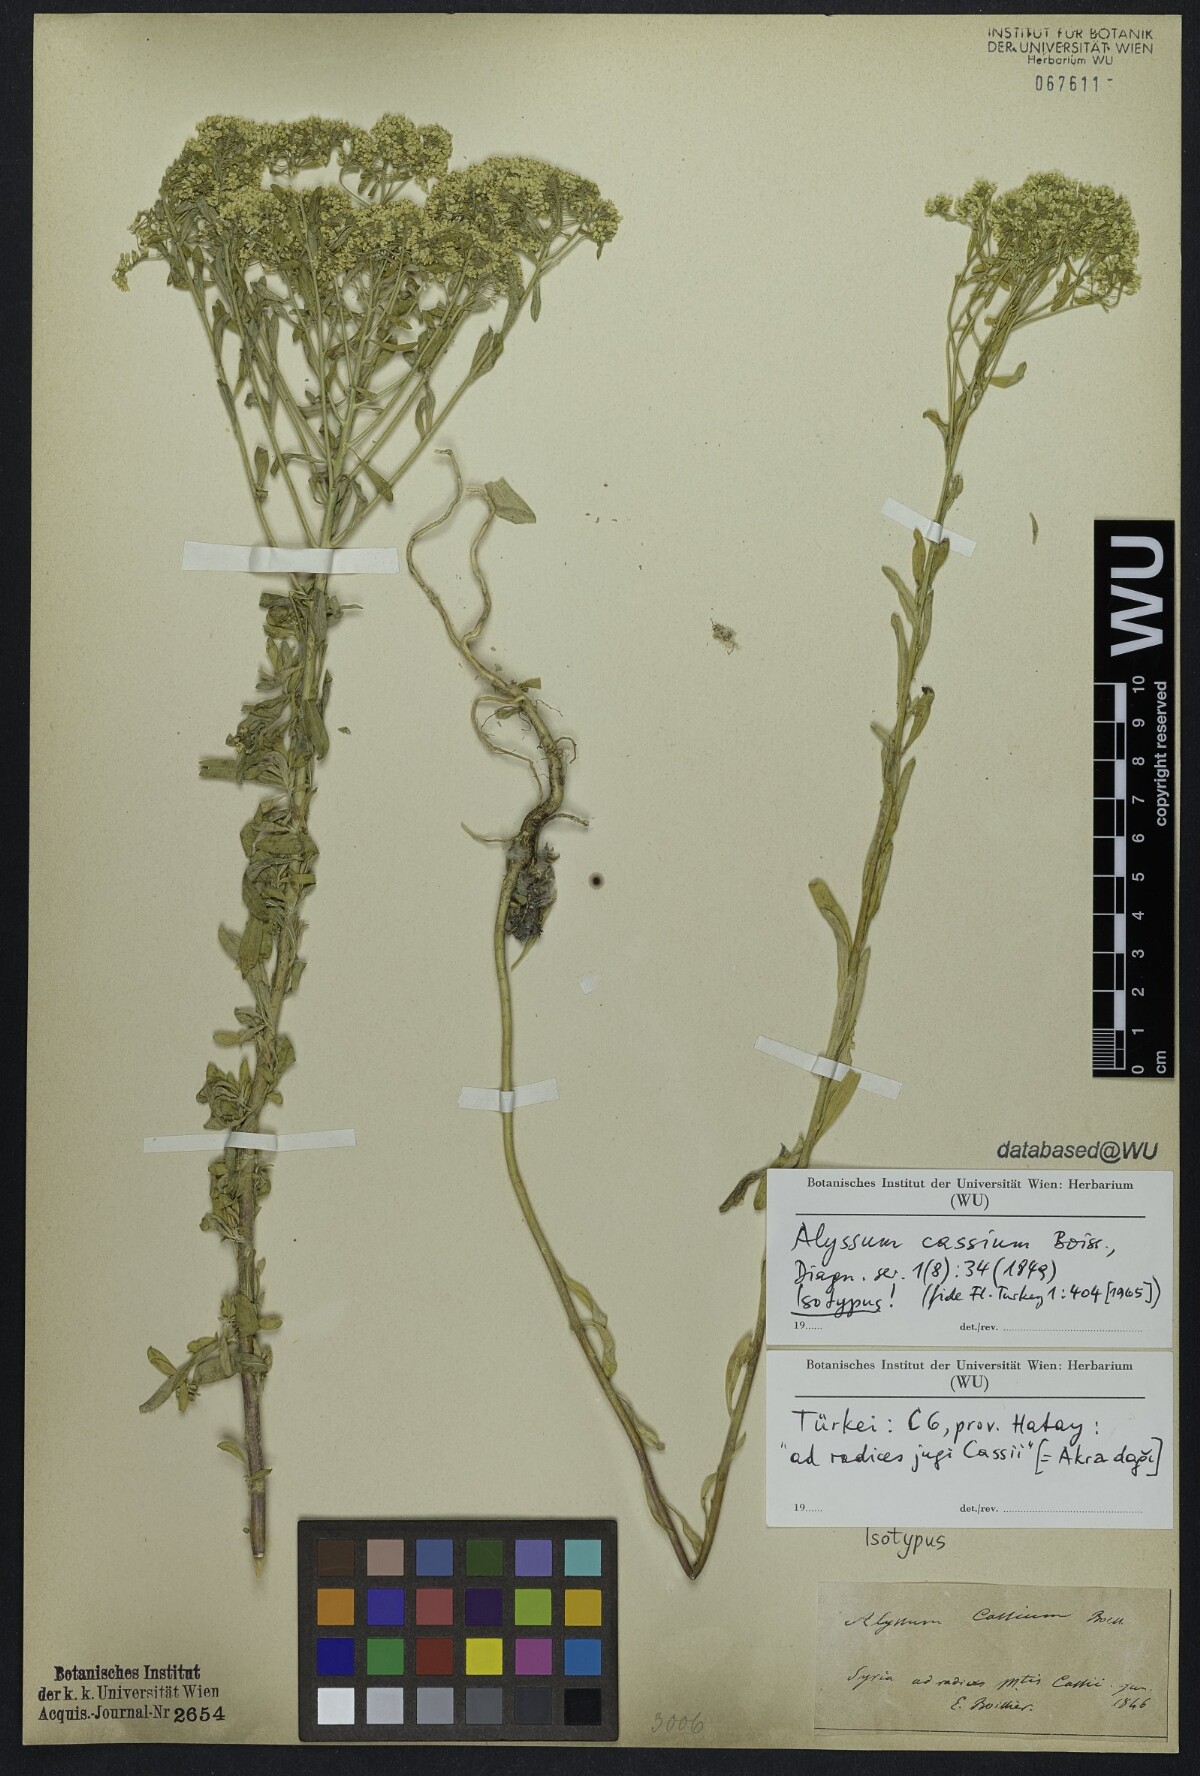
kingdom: Plantae
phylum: Tracheophyta
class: Magnoliopsida
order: Brassicales
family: Brassicaceae
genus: Odontarrhena
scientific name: Odontarrhena cassia
